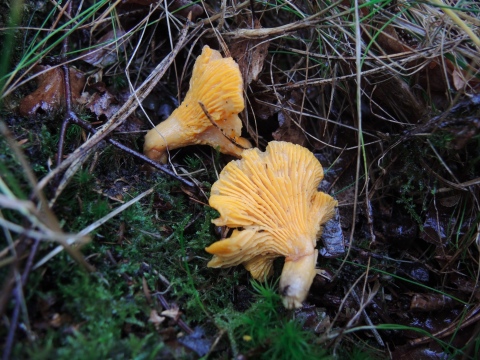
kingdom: Fungi
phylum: Basidiomycota
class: Agaricomycetes
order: Cantharellales
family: Hydnaceae
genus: Cantharellus
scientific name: Cantharellus cibarius
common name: almindelig kantarel
